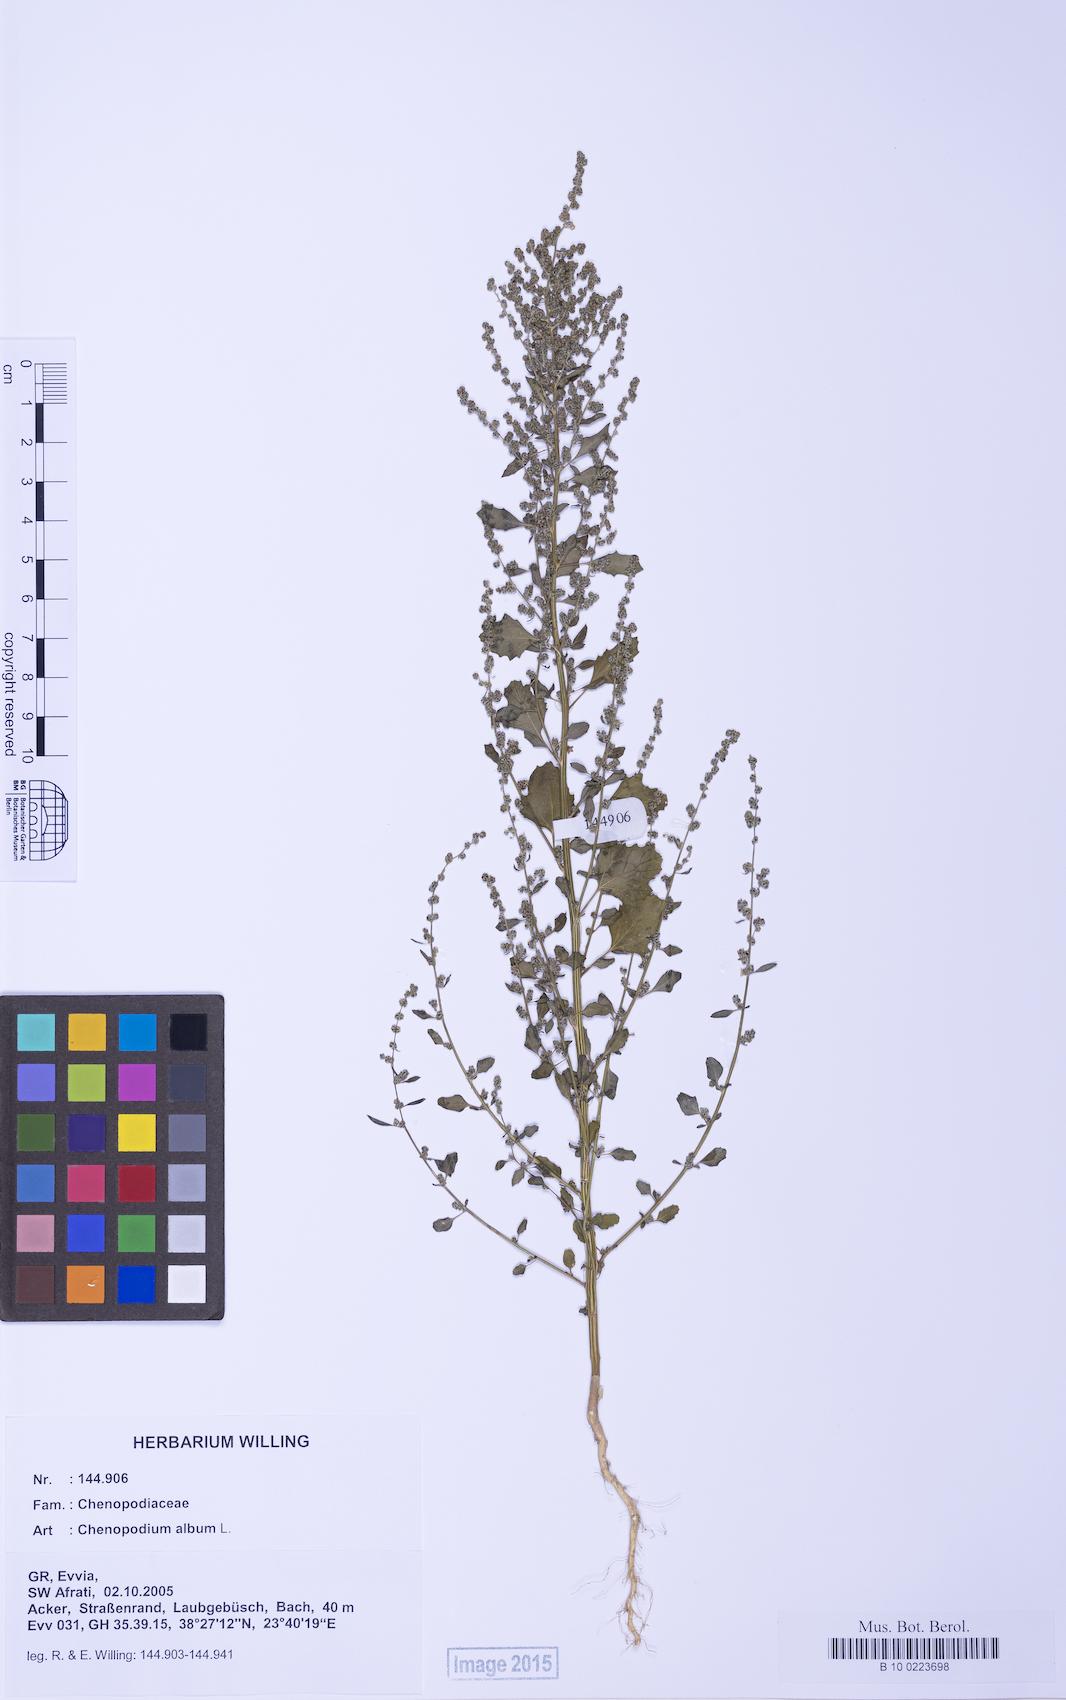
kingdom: Plantae
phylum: Tracheophyta
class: Magnoliopsida
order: Caryophyllales
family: Amaranthaceae
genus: Chenopodium
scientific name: Chenopodium album
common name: Fat-hen
